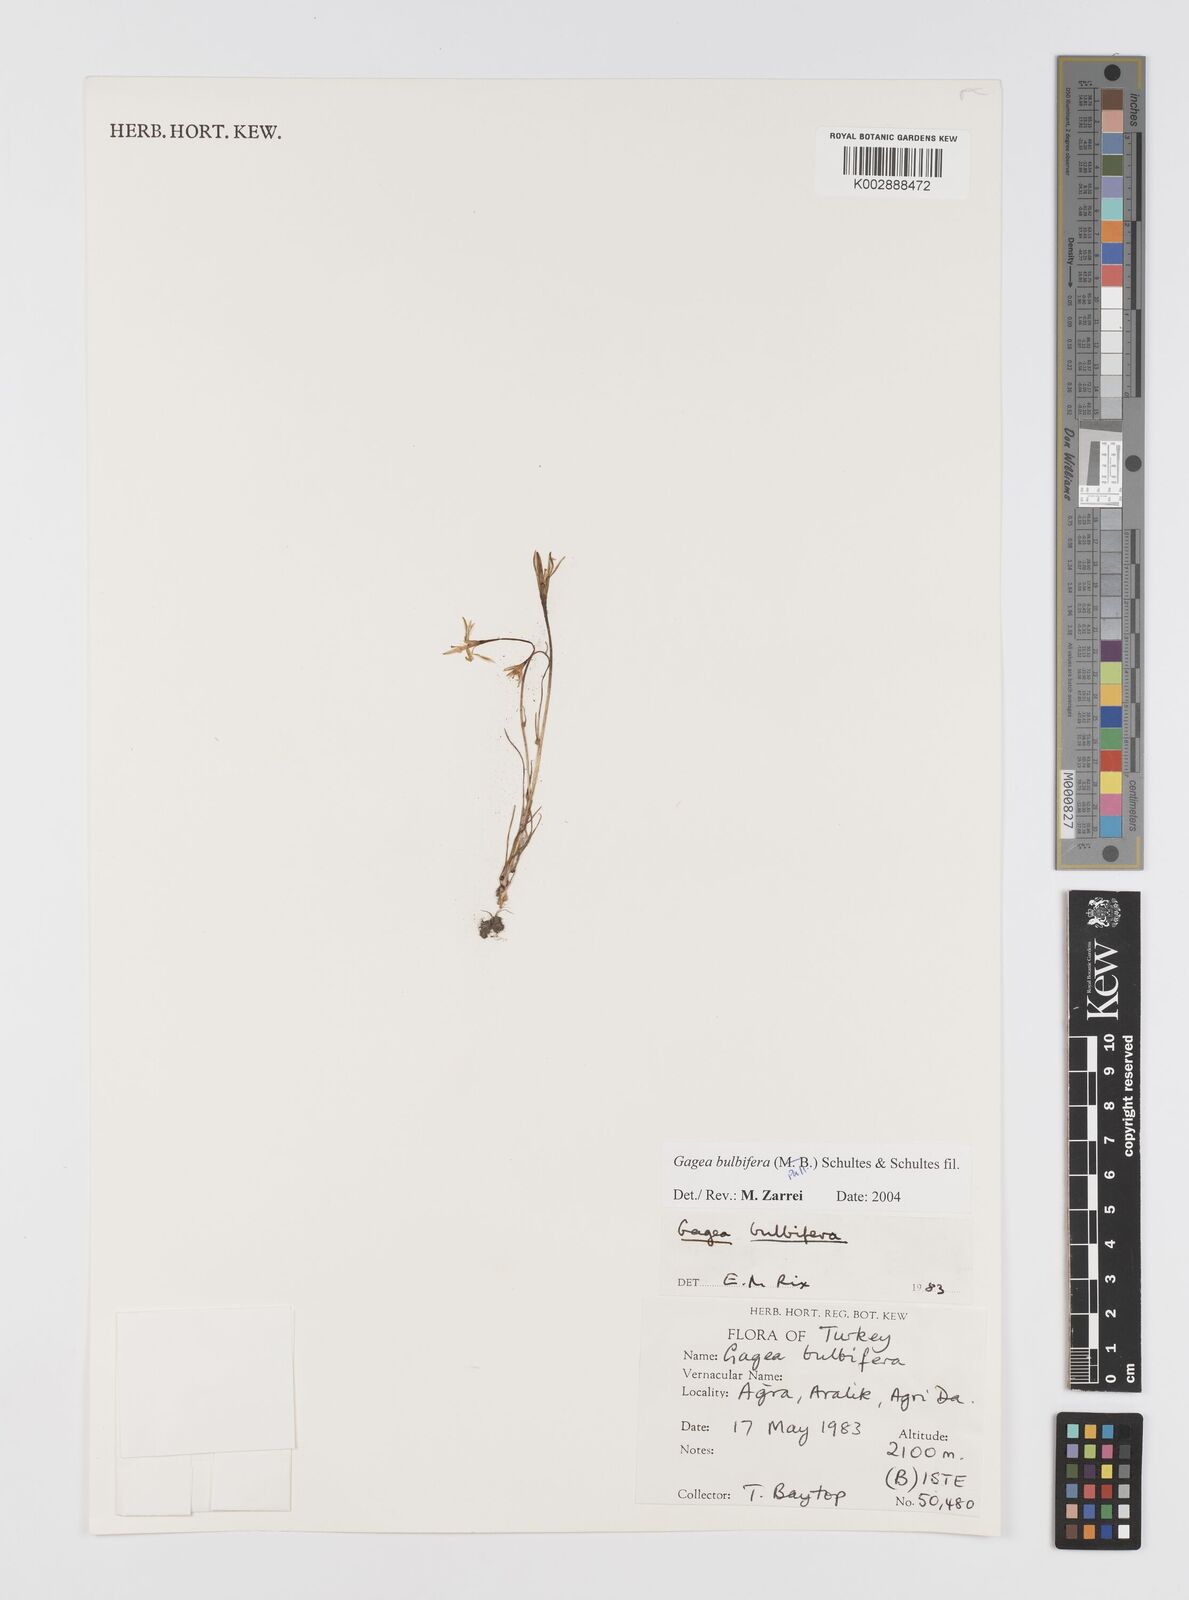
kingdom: Plantae
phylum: Tracheophyta
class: Liliopsida
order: Liliales
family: Liliaceae
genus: Gagea
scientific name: Gagea bulbifera
